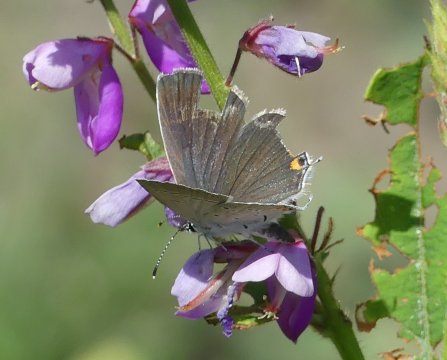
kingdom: Animalia
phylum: Arthropoda
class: Insecta
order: Lepidoptera
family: Lycaenidae
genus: Elkalyce
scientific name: Elkalyce comyntas
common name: Eastern Tailed-Blue
